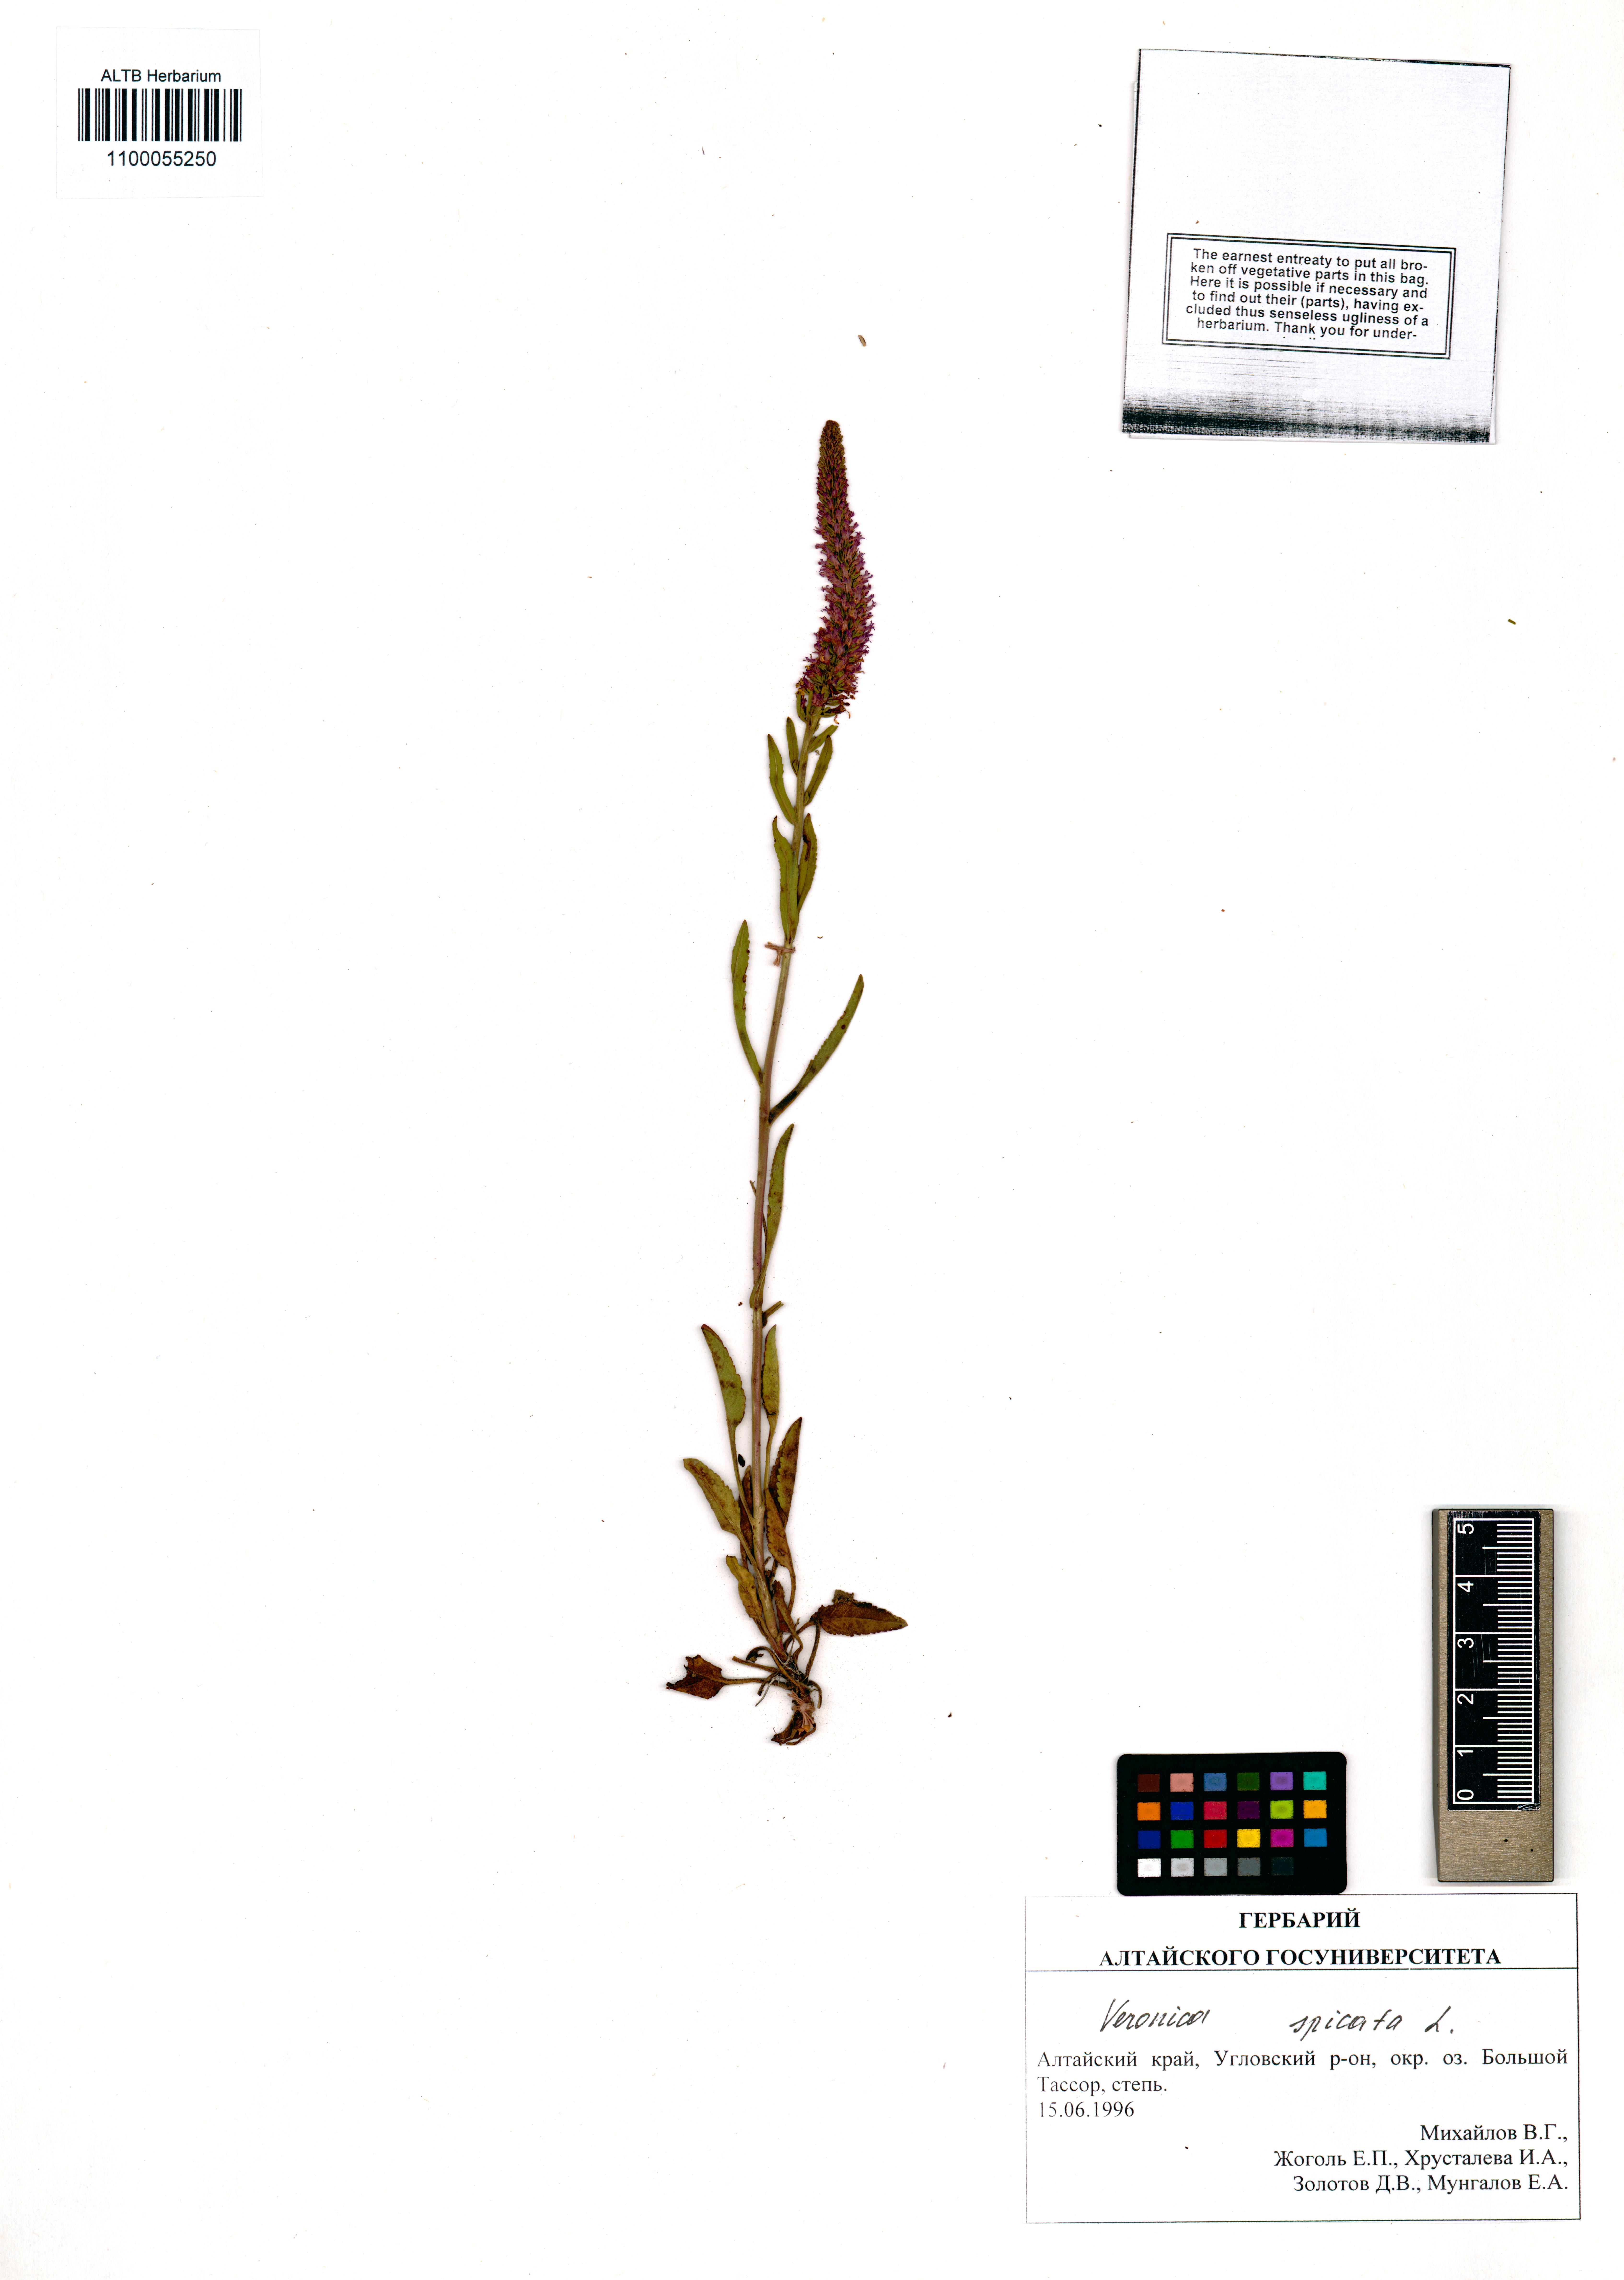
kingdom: Plantae
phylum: Tracheophyta
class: Magnoliopsida
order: Lamiales
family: Plantaginaceae
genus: Veronica
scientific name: Veronica spicata
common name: Spiked speedwell
